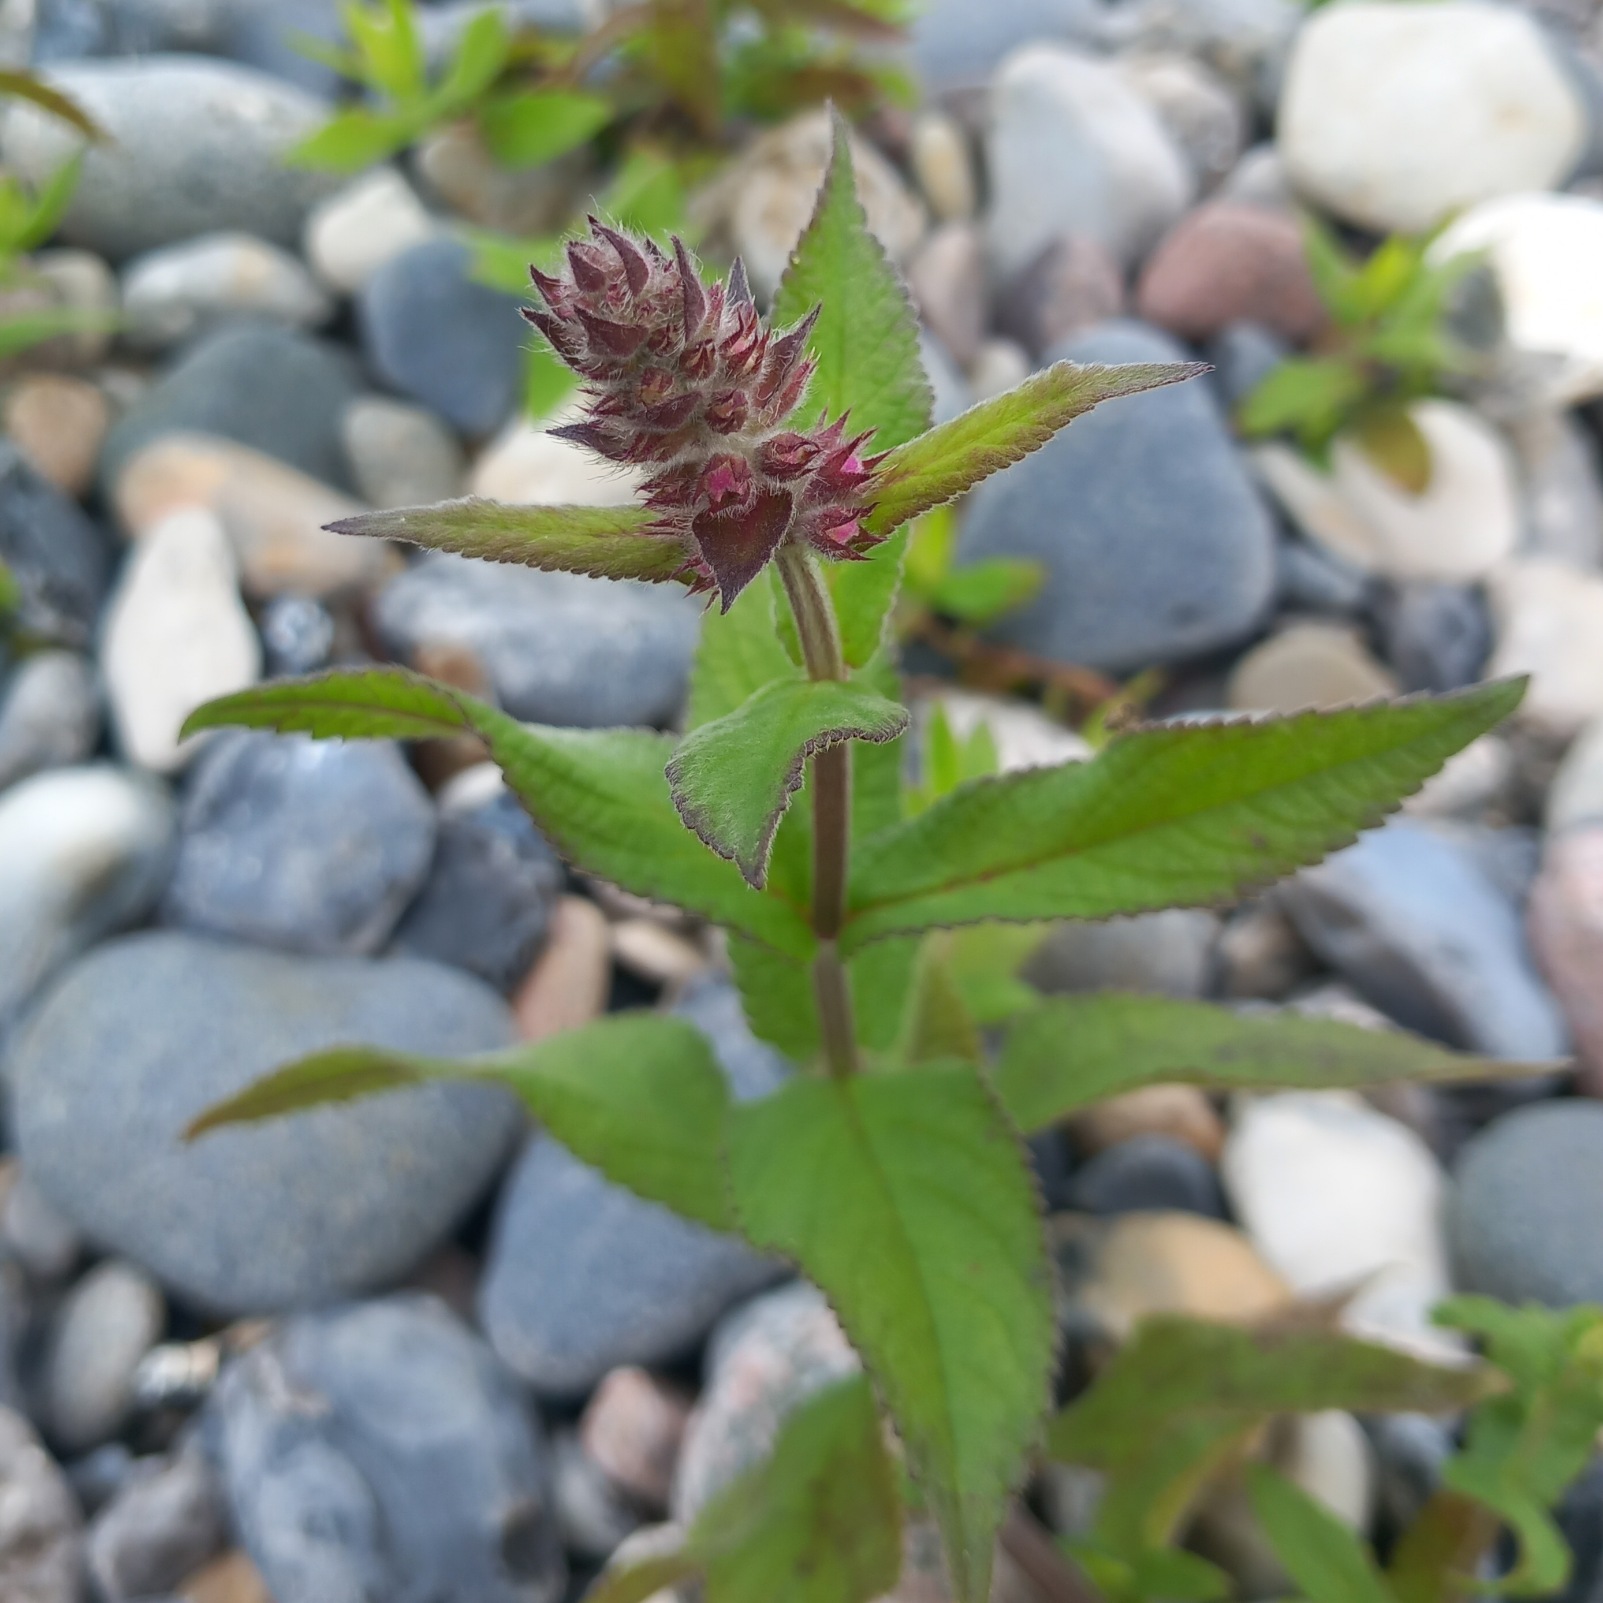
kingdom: Plantae
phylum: Tracheophyta
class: Magnoliopsida
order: Lamiales
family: Lamiaceae
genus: Stachys
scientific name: Stachys palustris
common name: Kær-galtetand
